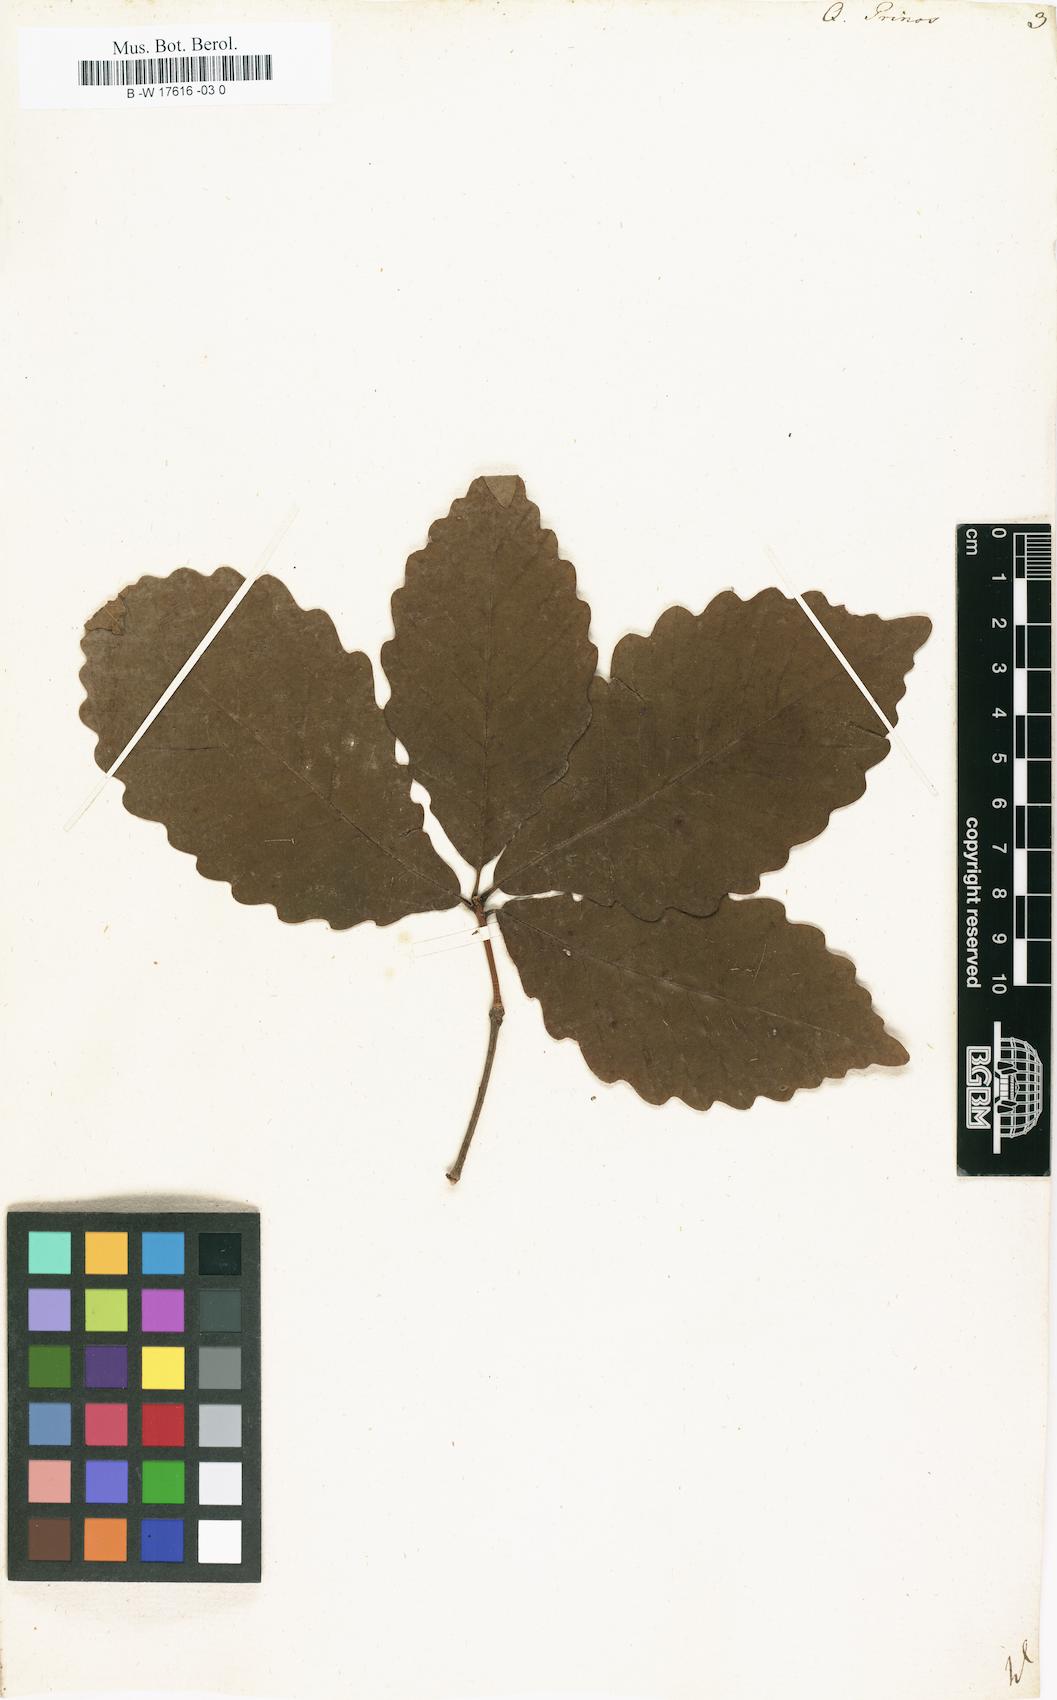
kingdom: Plantae
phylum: Tracheophyta
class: Magnoliopsida
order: Fagales
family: Fagaceae
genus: Quercus
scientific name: Quercus michauxii
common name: Swamp chestnut oak
